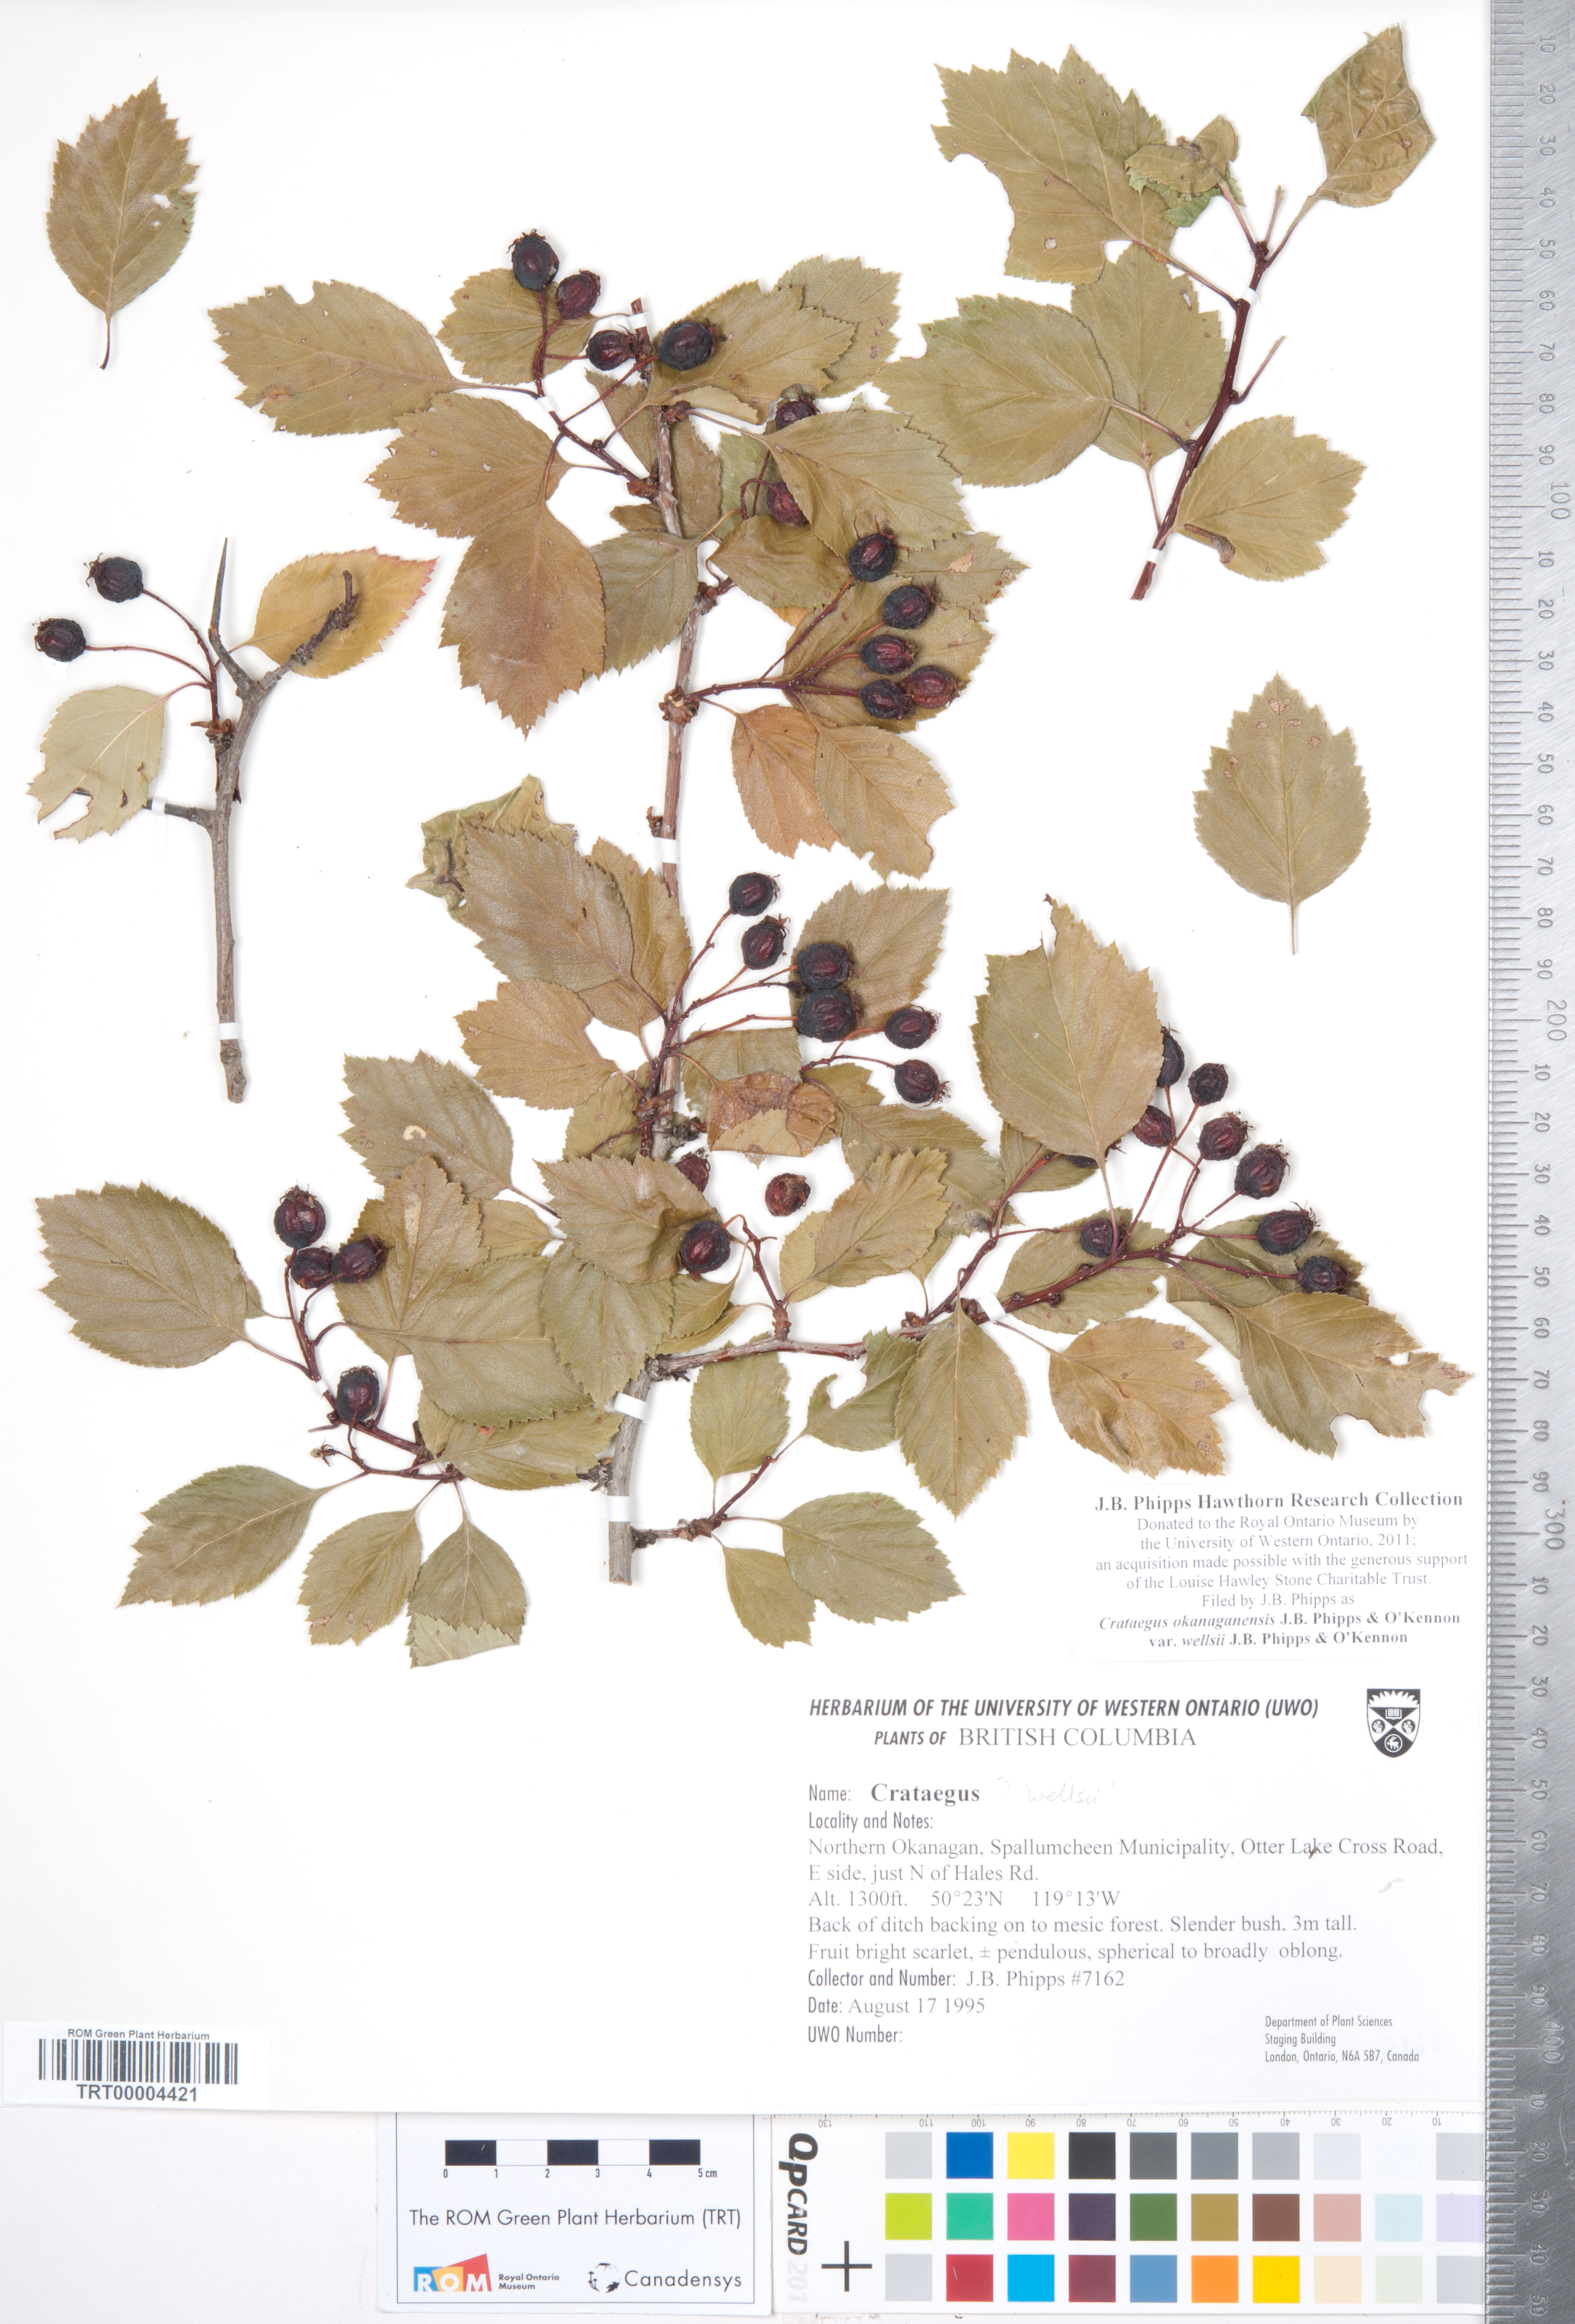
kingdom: Plantae
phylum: Tracheophyta
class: Magnoliopsida
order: Rosales
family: Rosaceae
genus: Crataegus
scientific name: Crataegus okanaganensis
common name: Okanagan valley hawthorn
